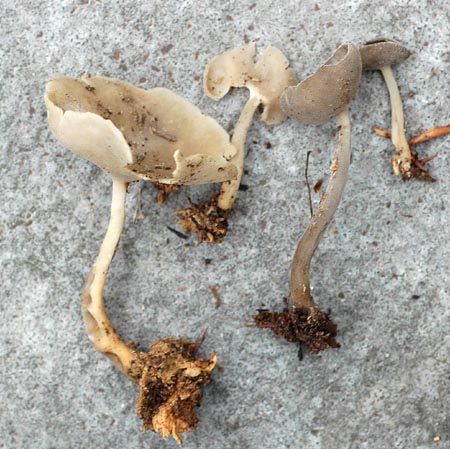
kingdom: Fungi
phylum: Ascomycota
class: Pezizomycetes
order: Pezizales
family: Helvellaceae
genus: Helvella
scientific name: Helvella macropus
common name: højstokket foldhat
